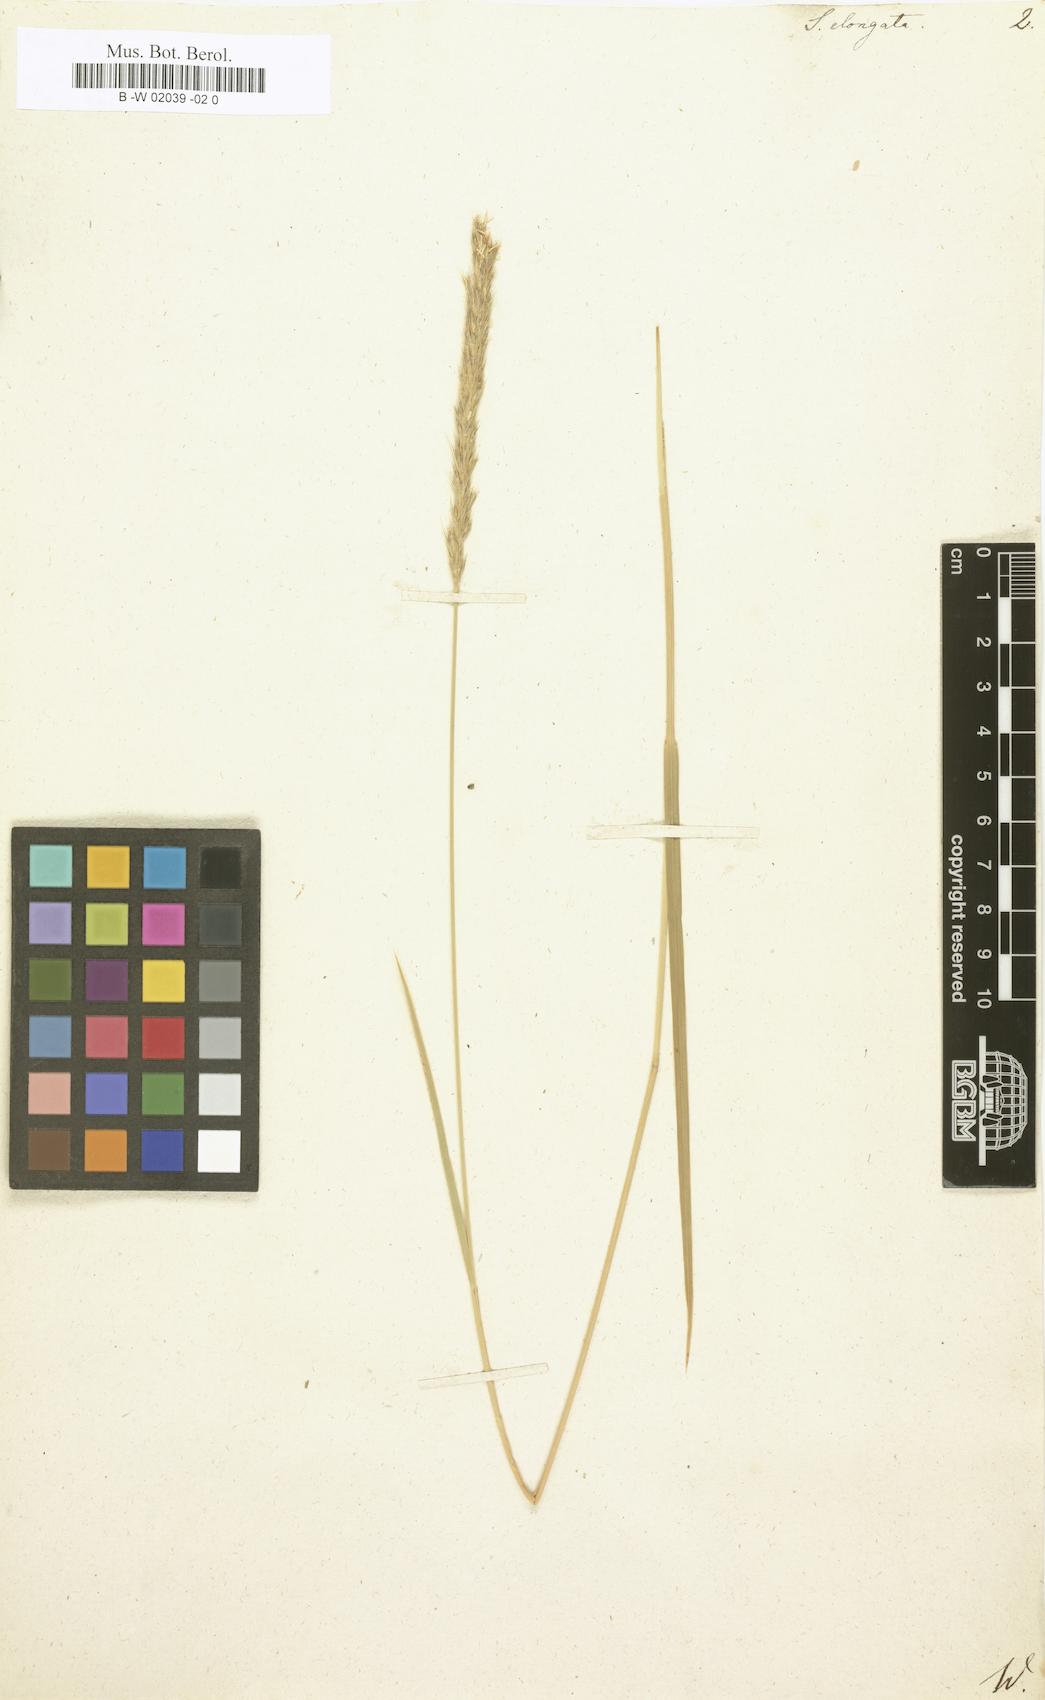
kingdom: Plantae
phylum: Tracheophyta
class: Liliopsida
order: Poales
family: Poaceae
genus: Sesleria
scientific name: Sesleria autumnalis
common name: Autumn moor grass
